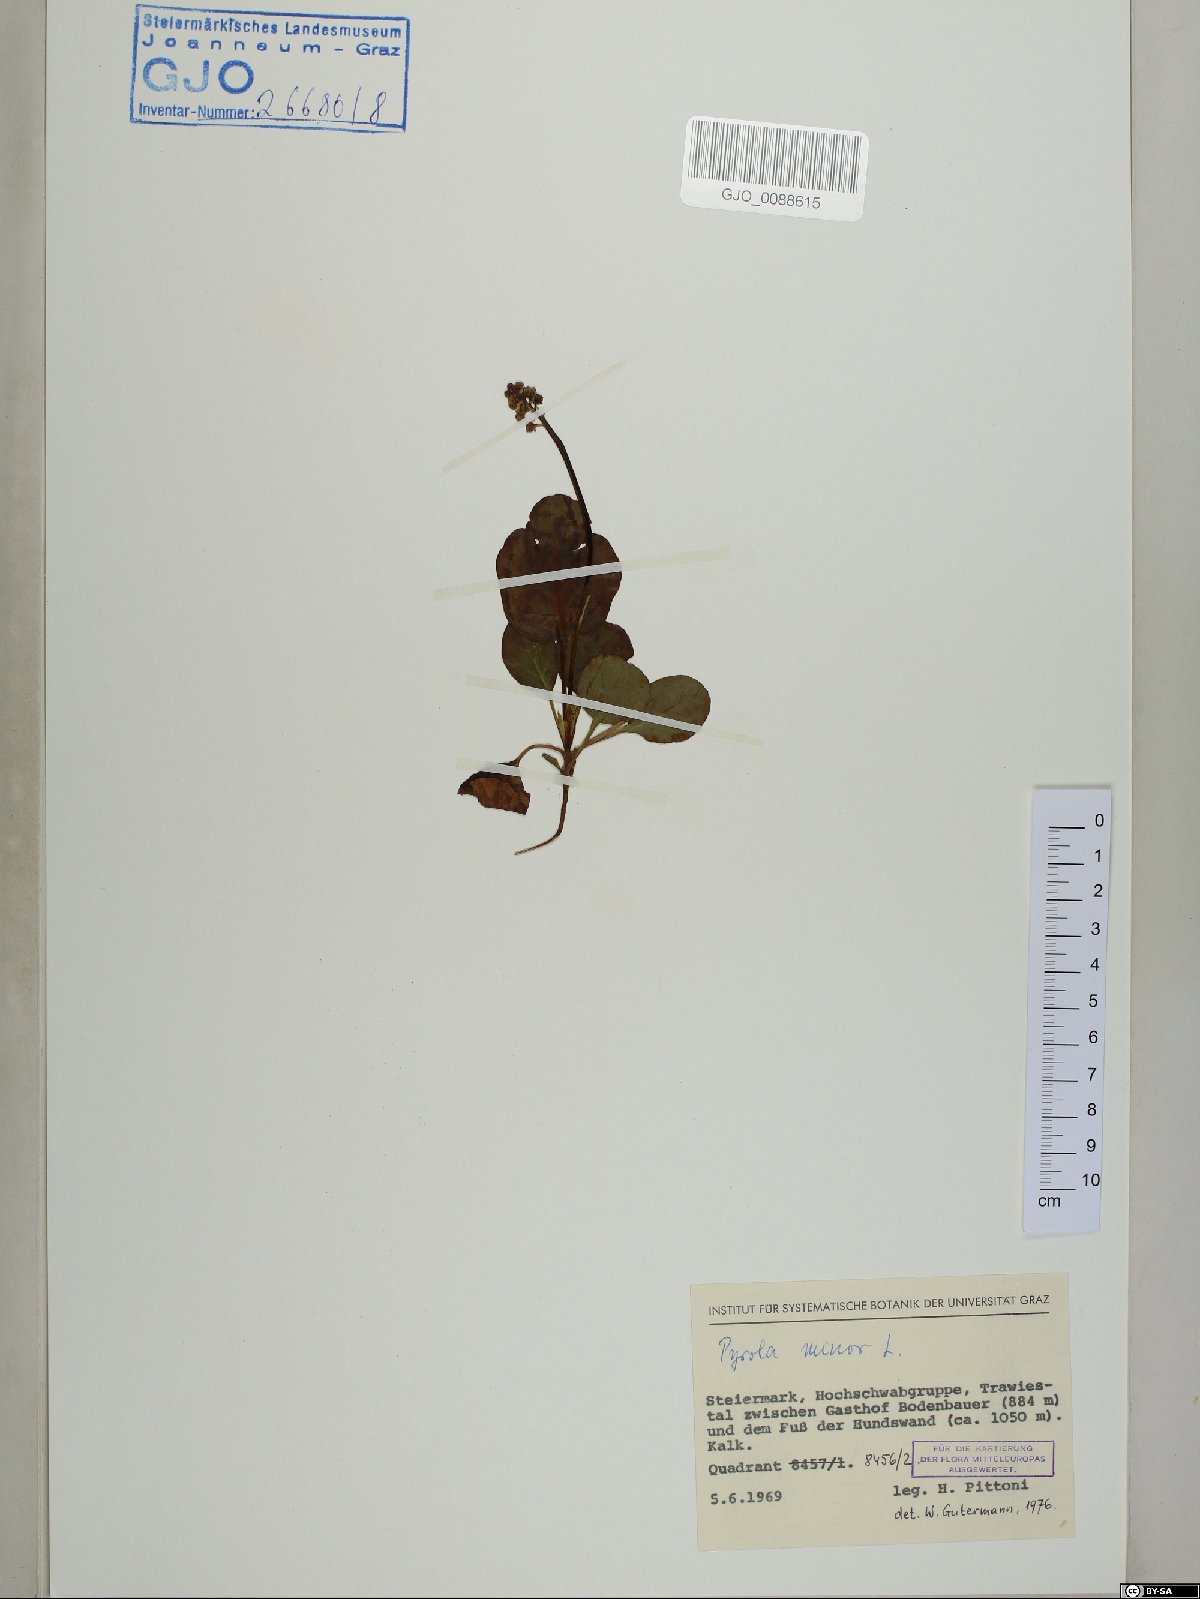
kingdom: Plantae
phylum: Tracheophyta
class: Magnoliopsida
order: Ericales
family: Ericaceae
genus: Pyrola
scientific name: Pyrola minor
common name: Common wintergreen
